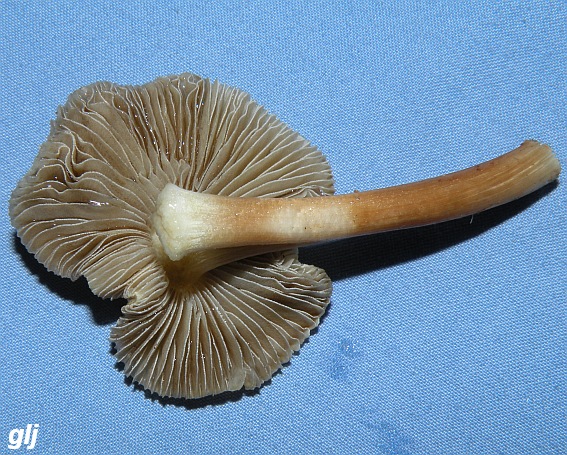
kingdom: Fungi
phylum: Basidiomycota
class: Agaricomycetes
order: Agaricales
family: Inocybaceae
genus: Pseudosperma
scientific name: Pseudosperma rimosum
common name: gulbladet trævlhat
